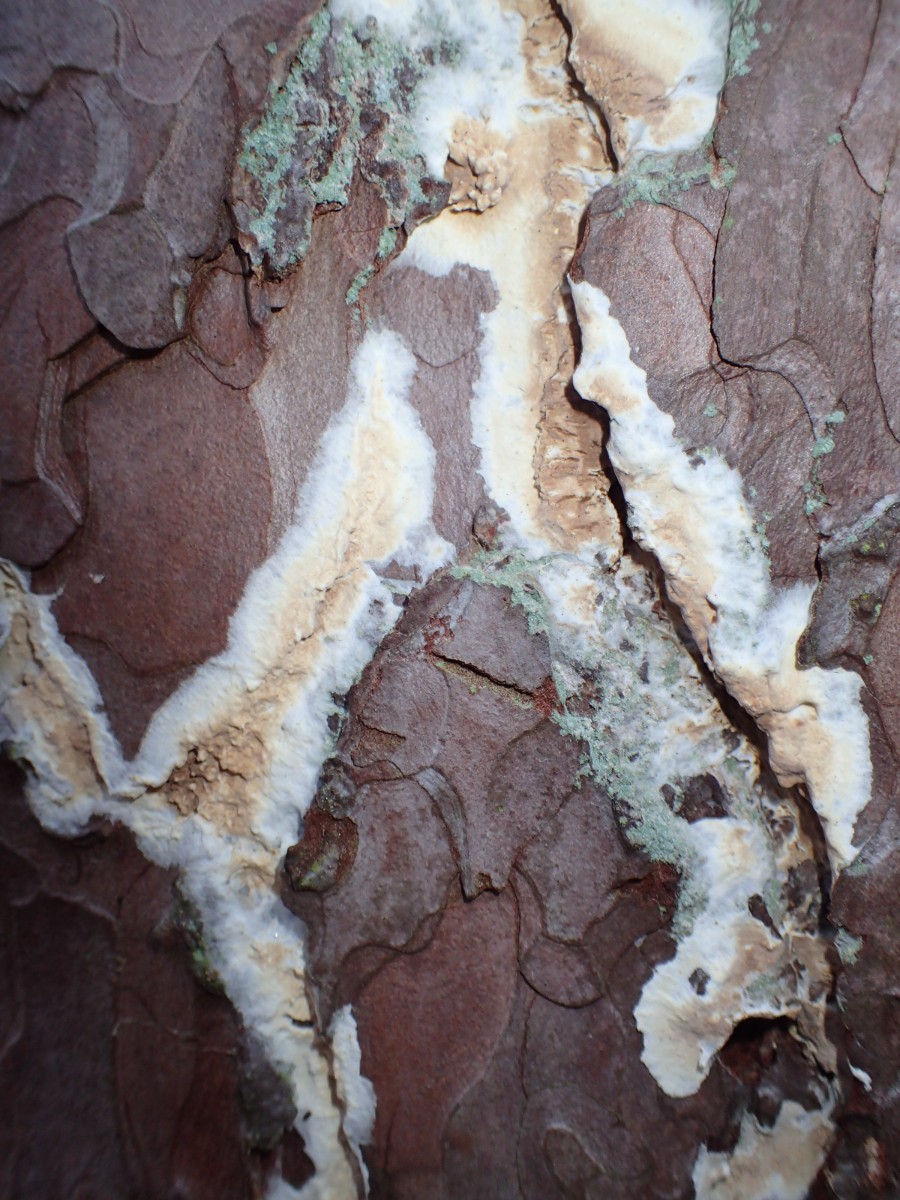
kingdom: Fungi
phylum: Basidiomycota
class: Agaricomycetes
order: Boletales
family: Coniophoraceae
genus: Coniophora
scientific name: Coniophora puteana
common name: gul tømmersvamp
